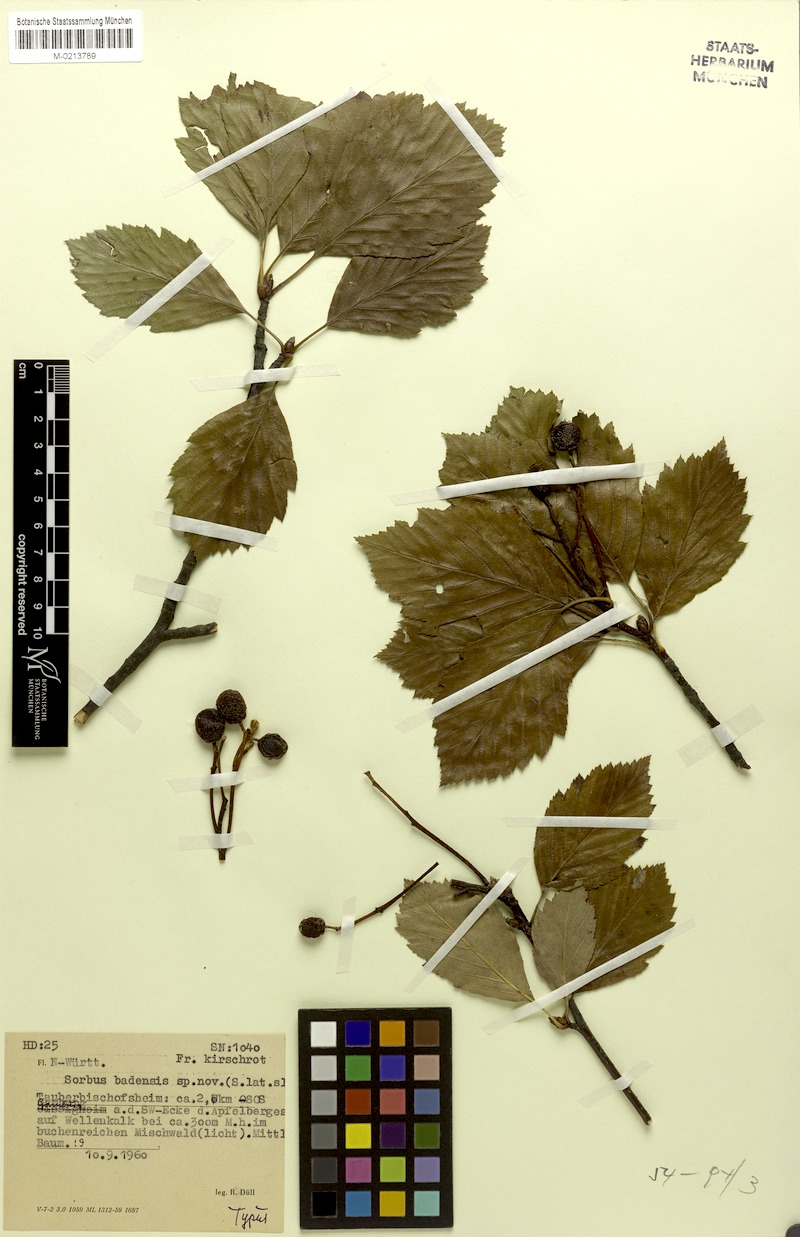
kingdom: Plantae
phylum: Tracheophyta
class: Magnoliopsida
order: Rosales
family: Rosaceae
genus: Karpatiosorbus
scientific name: Karpatiosorbus badensis
